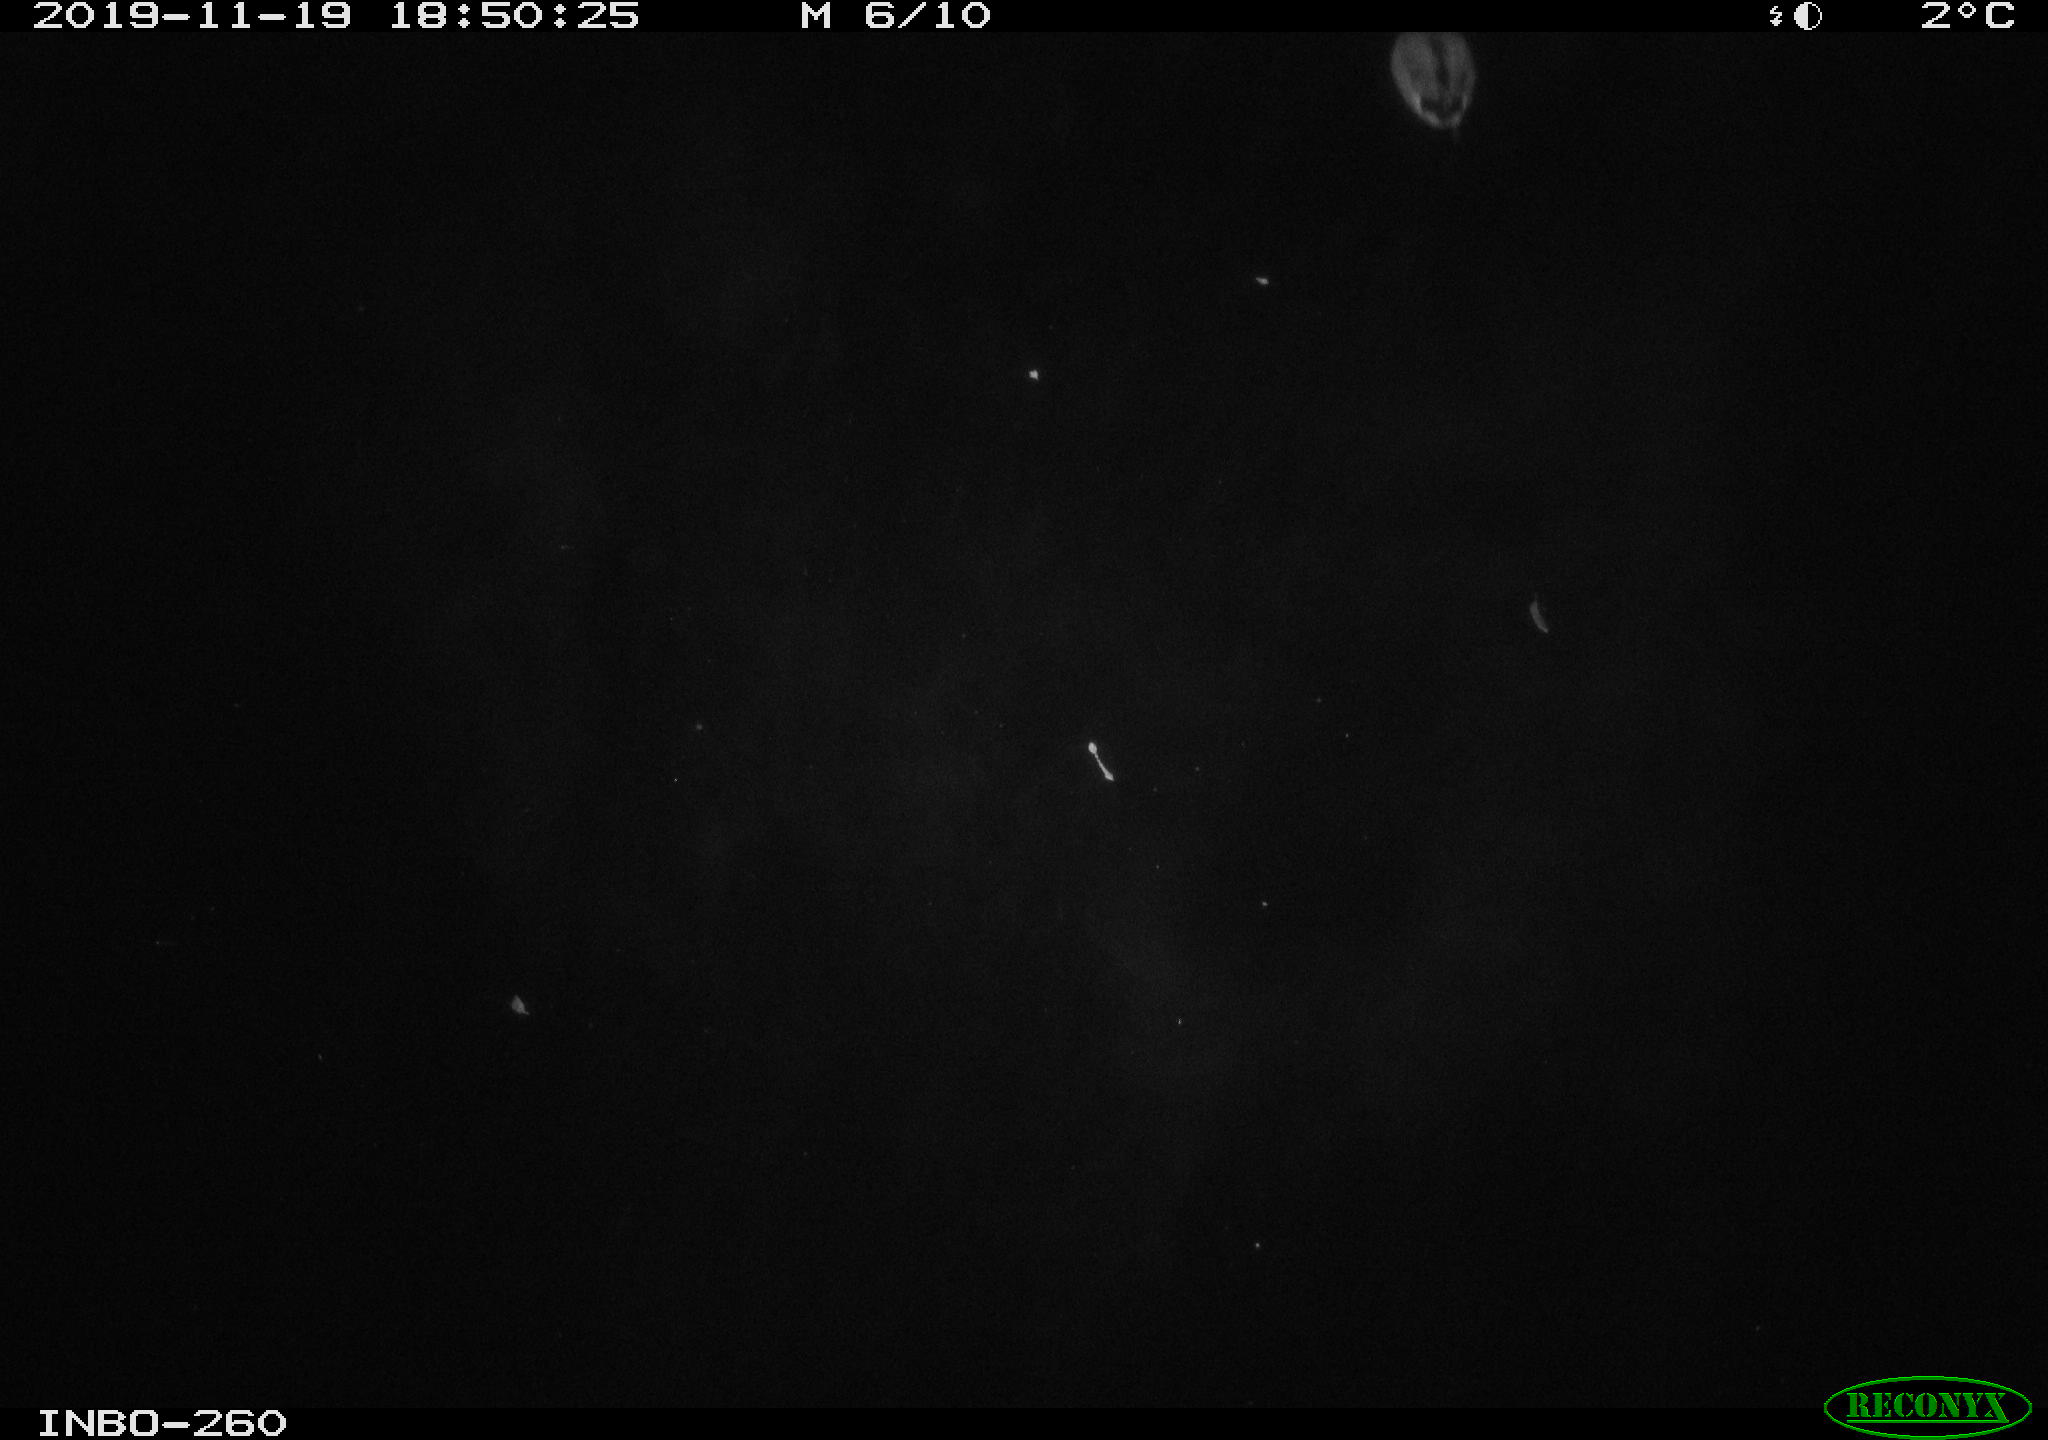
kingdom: Animalia
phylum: Chordata
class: Aves
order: Anseriformes
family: Anatidae
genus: Anas
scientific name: Anas platyrhynchos
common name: Mallard
